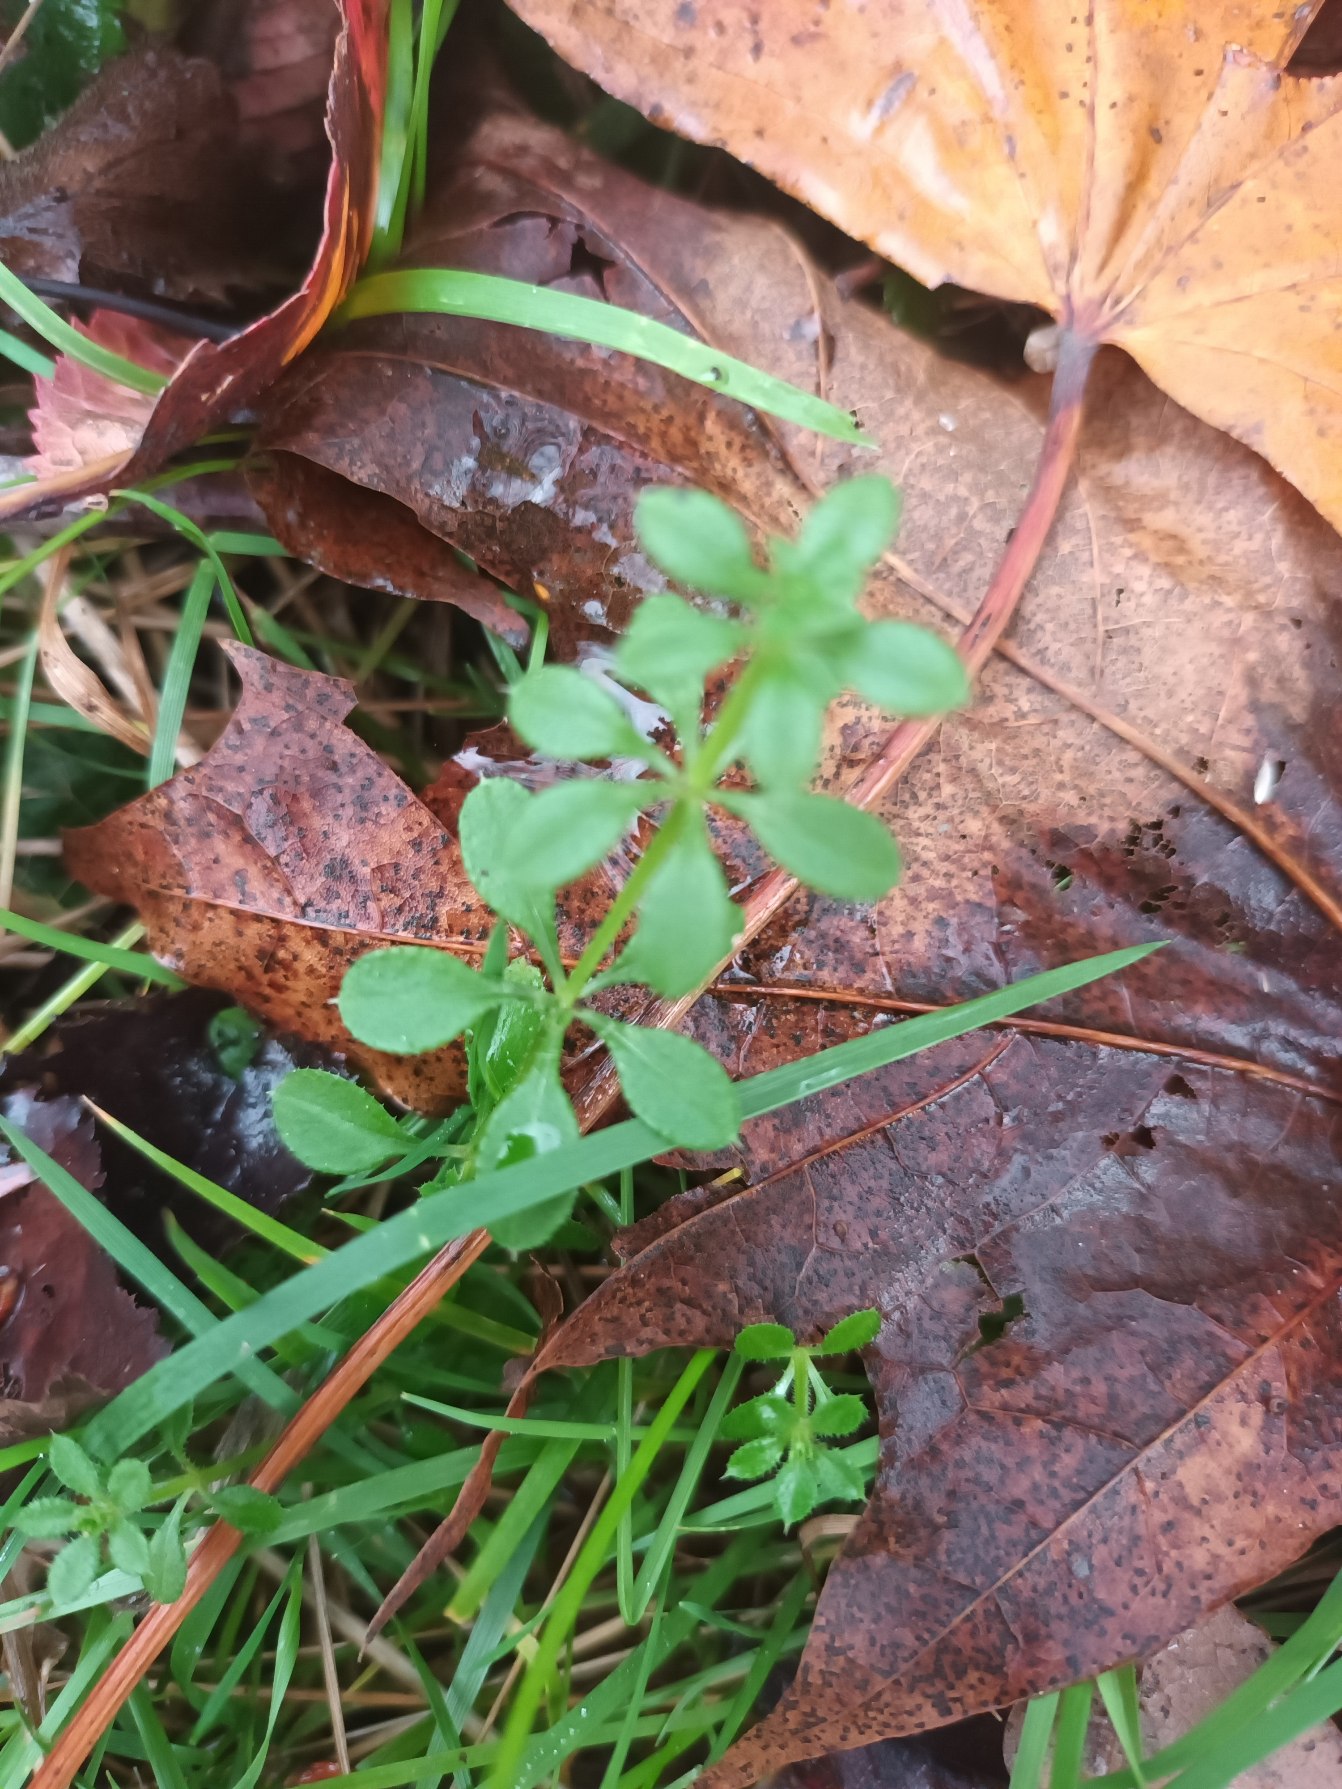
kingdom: Plantae
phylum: Tracheophyta
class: Magnoliopsida
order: Gentianales
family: Rubiaceae
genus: Galium
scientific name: Galium aparine
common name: Burre-snerre
